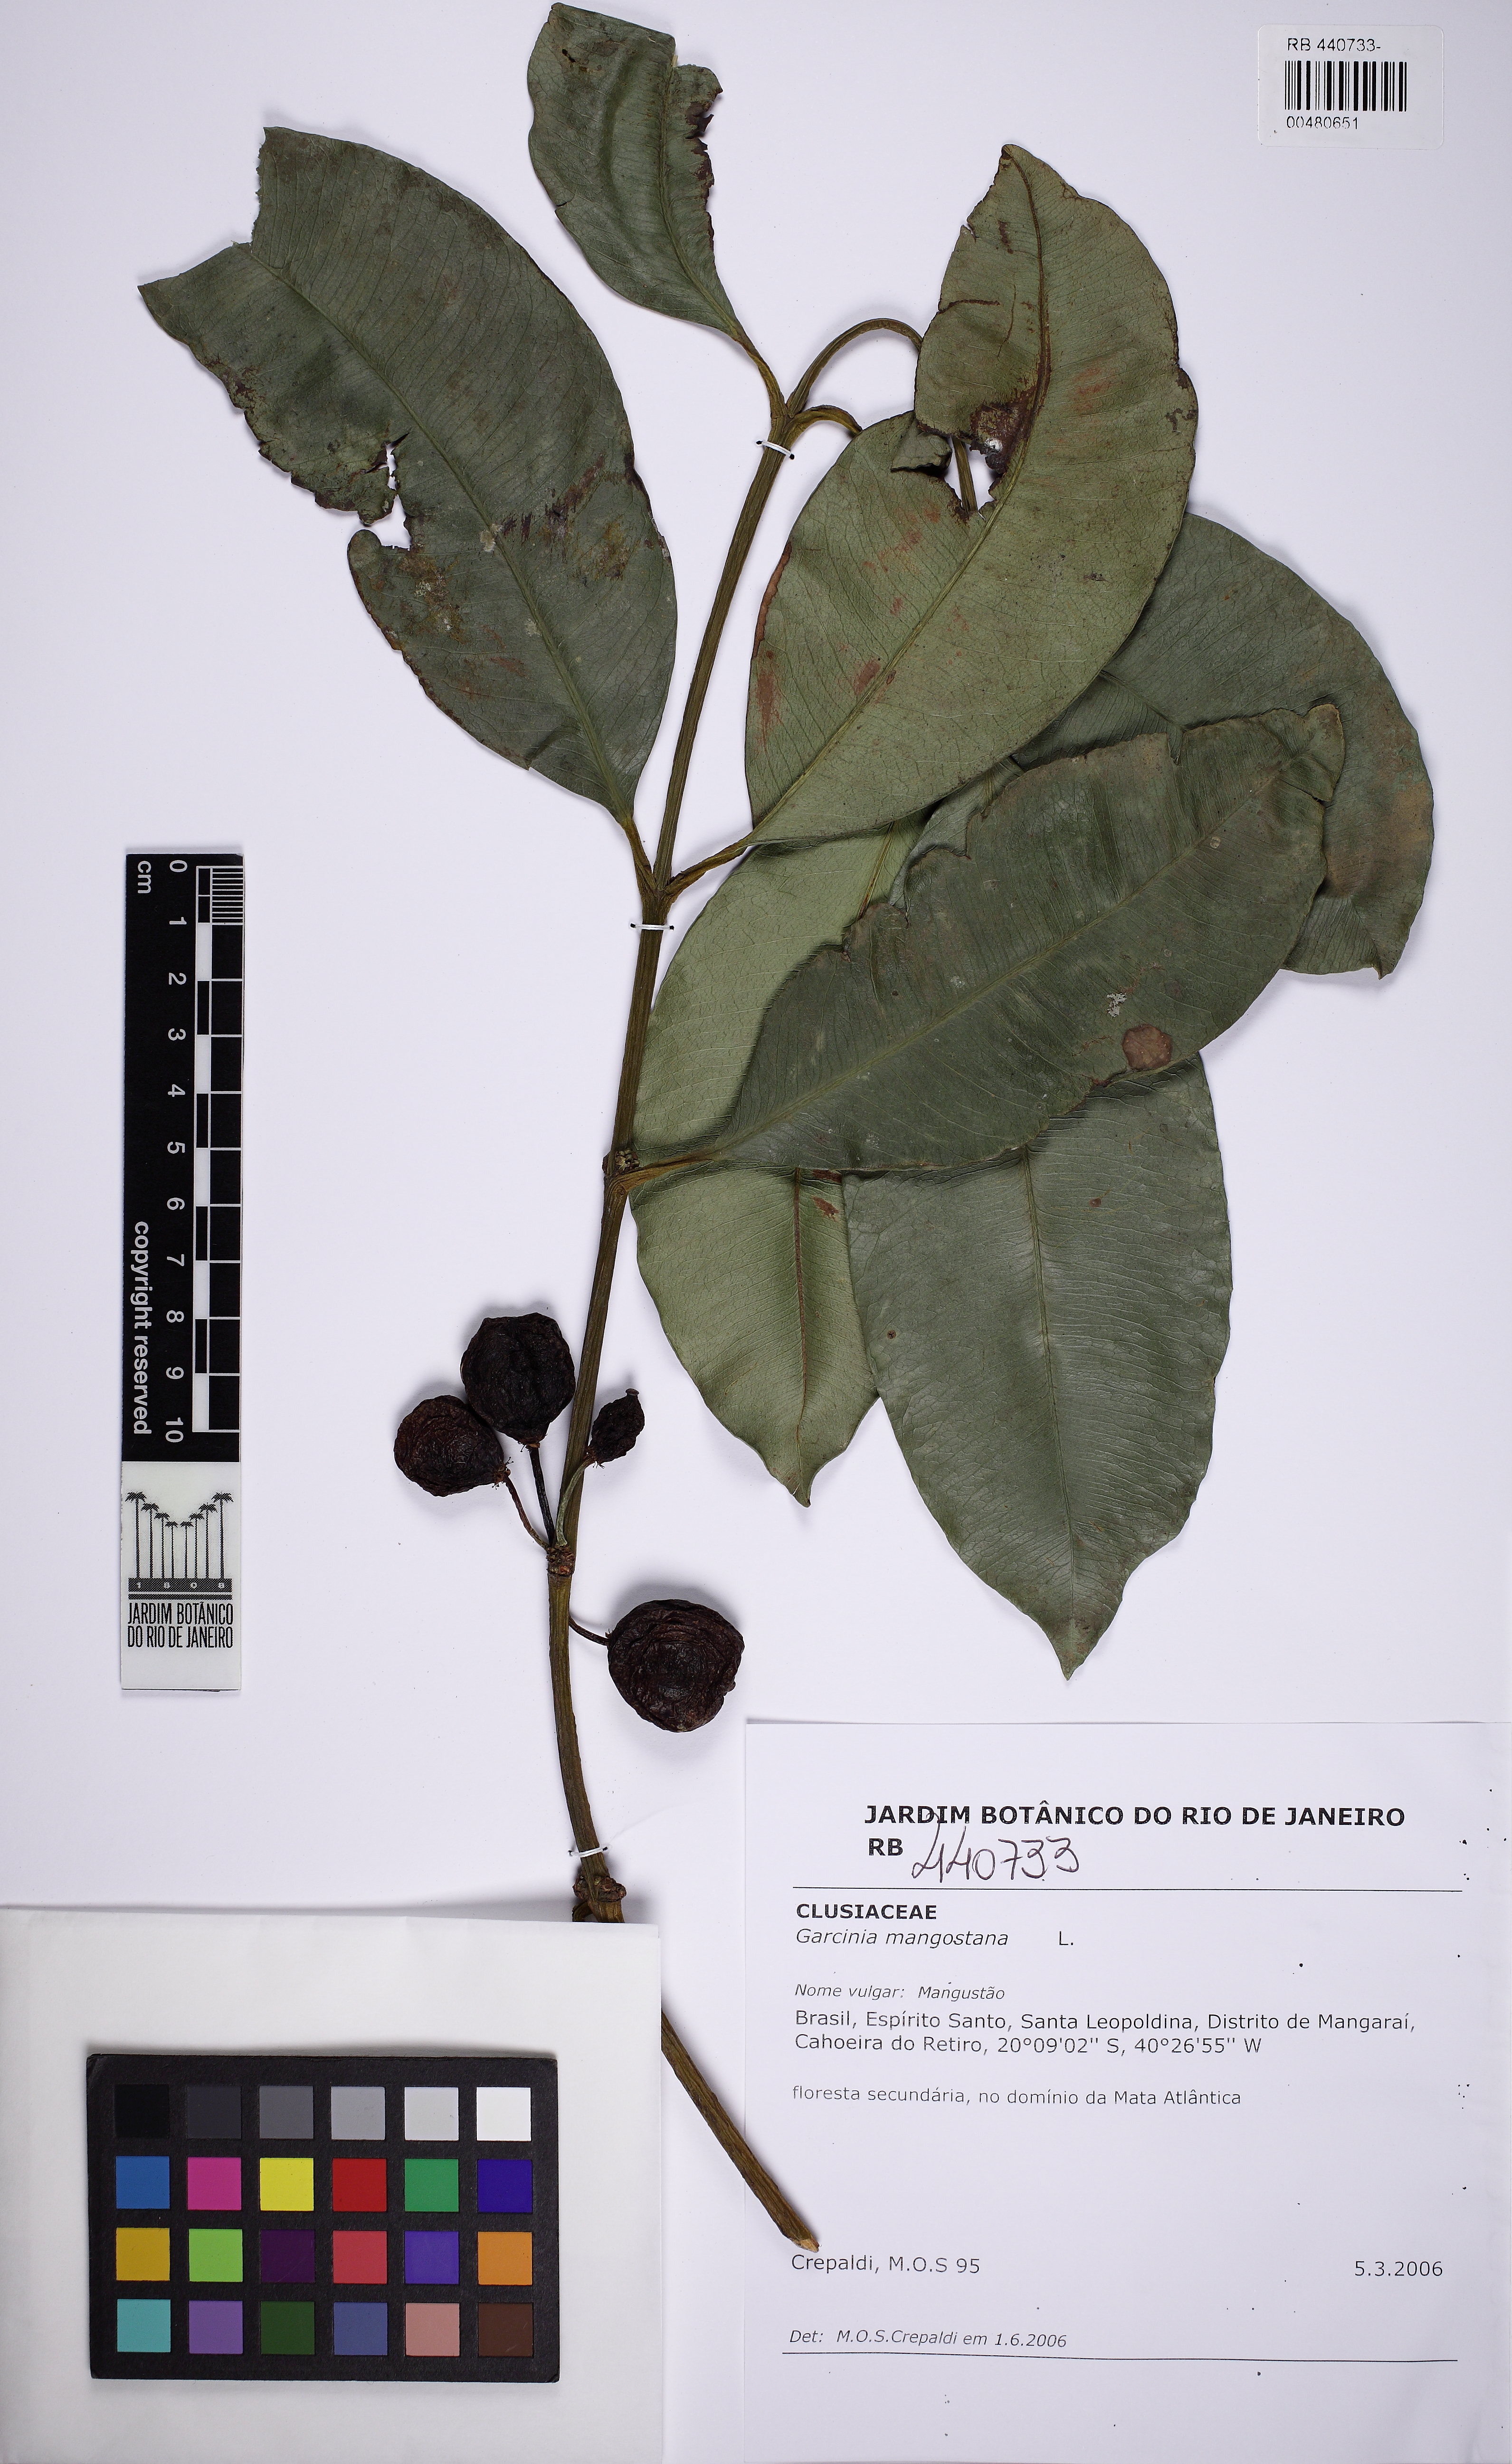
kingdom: Plantae
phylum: Tracheophyta
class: Magnoliopsida
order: Malpighiales
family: Clusiaceae
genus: Garcinia
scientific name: Garcinia mangostana
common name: Mangosteen
